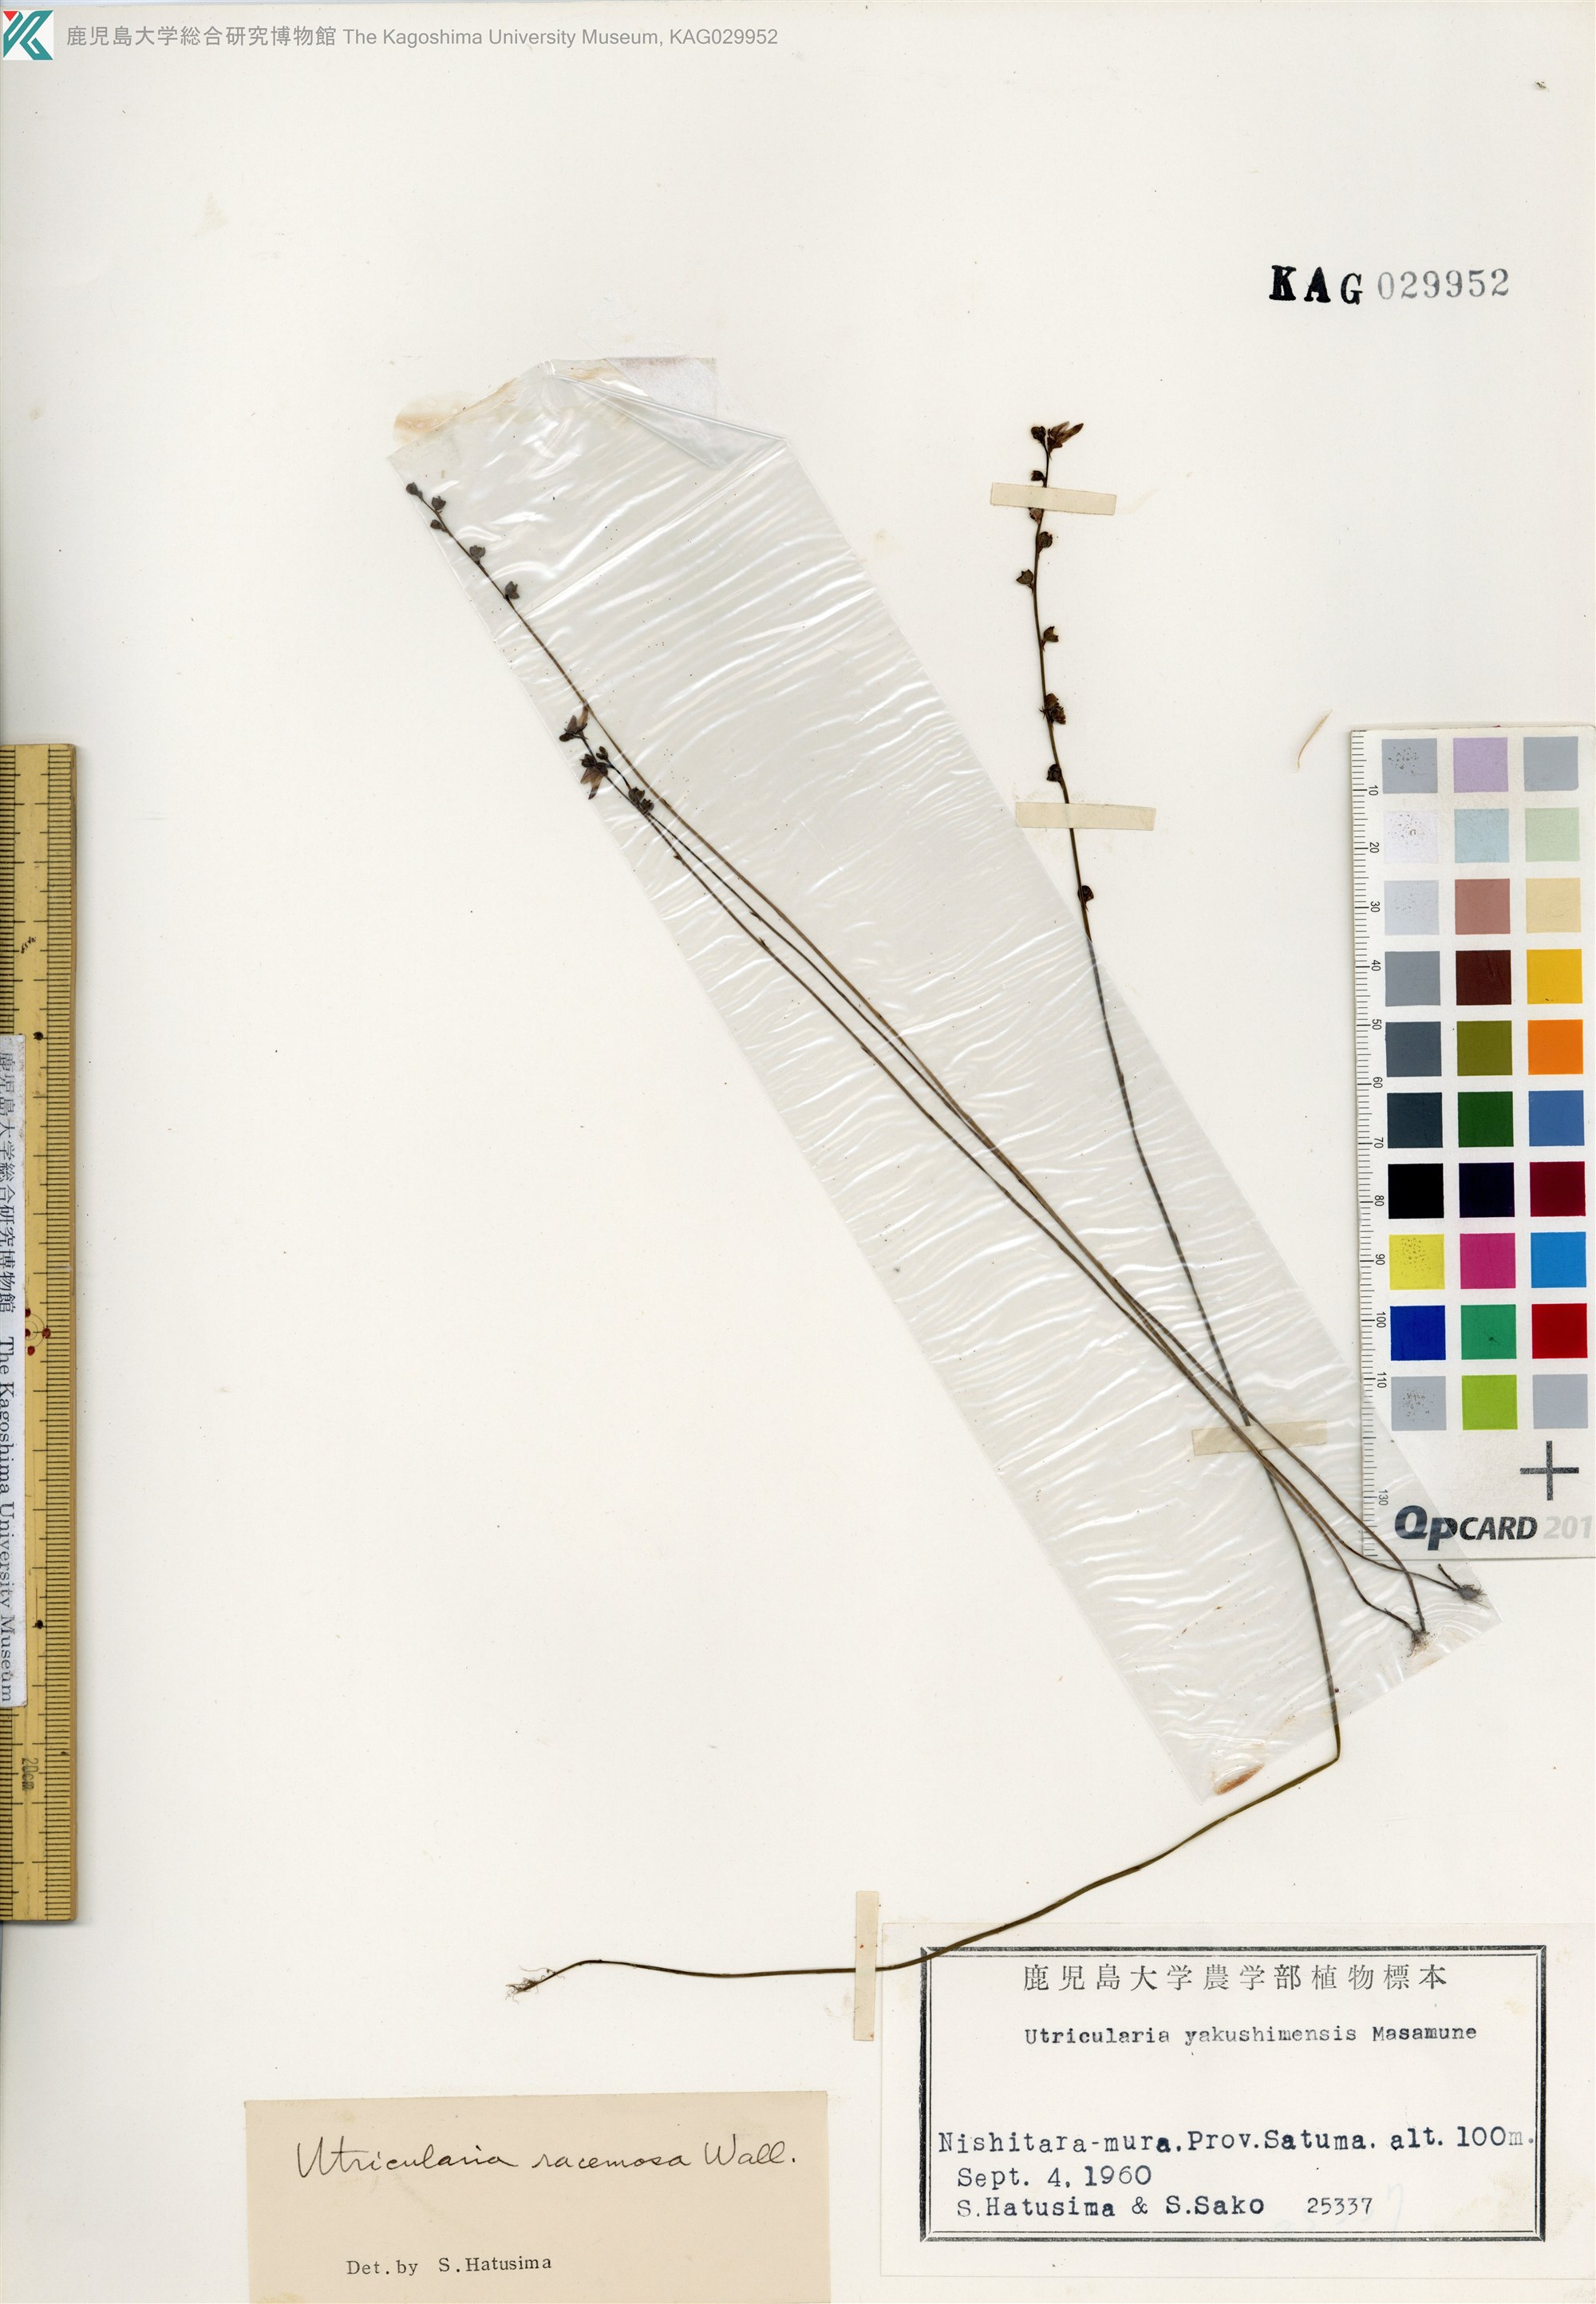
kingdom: Plantae
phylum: Tracheophyta
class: Magnoliopsida
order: Lamiales
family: Lentibulariaceae
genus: Utricularia
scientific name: Utricularia caerulea
